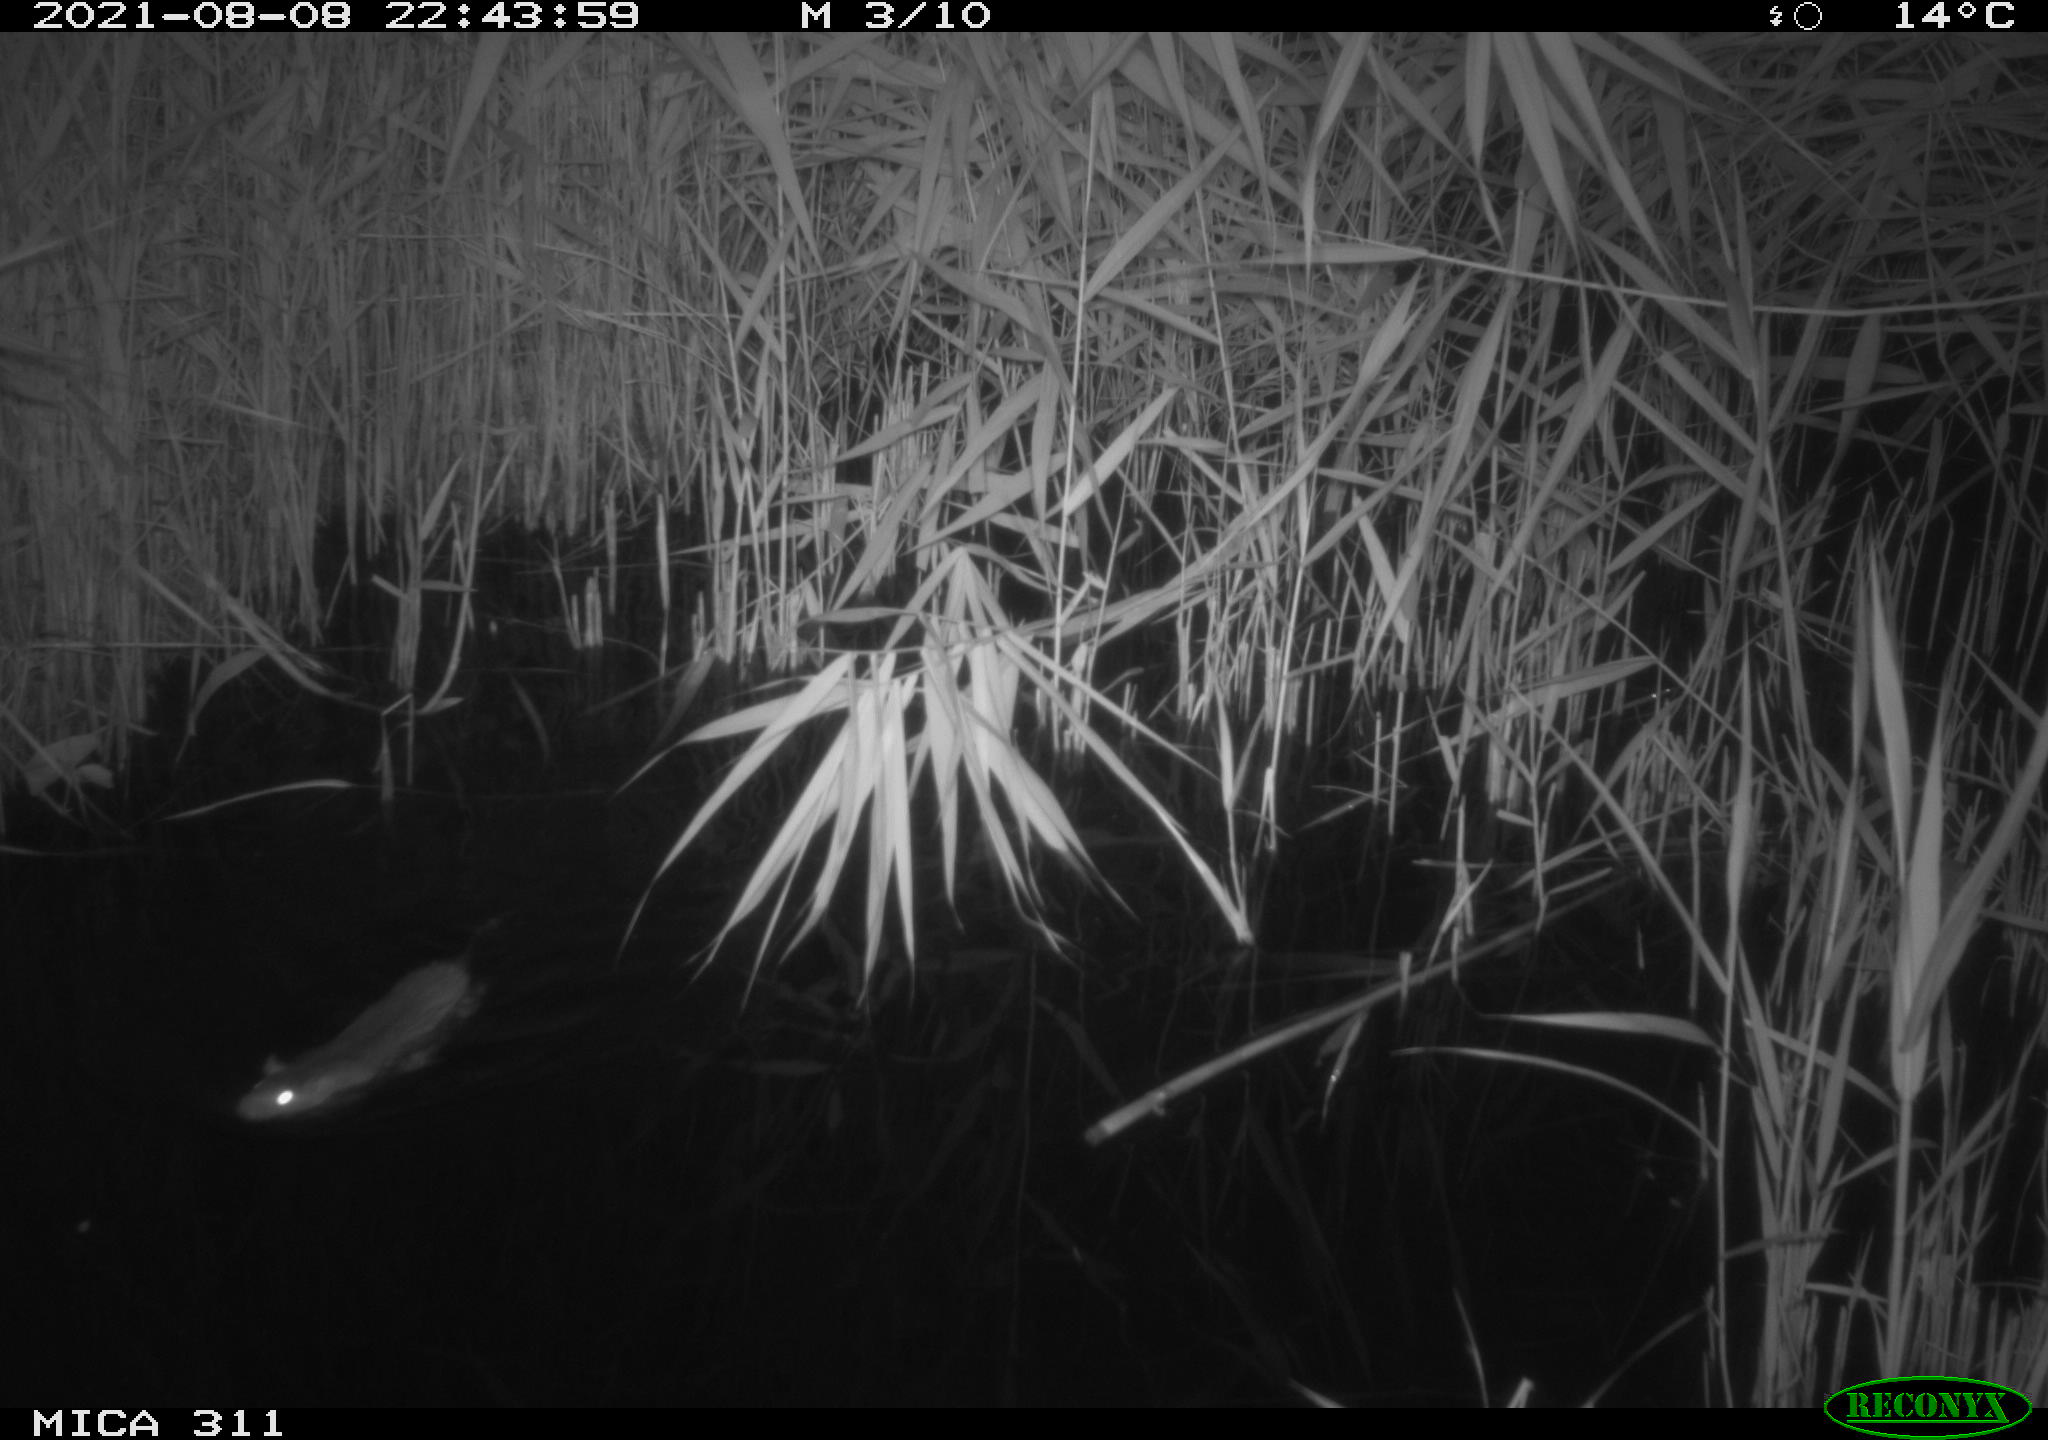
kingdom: Animalia
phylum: Chordata
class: Mammalia
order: Rodentia
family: Muridae
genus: Rattus
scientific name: Rattus norvegicus
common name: Brown rat
